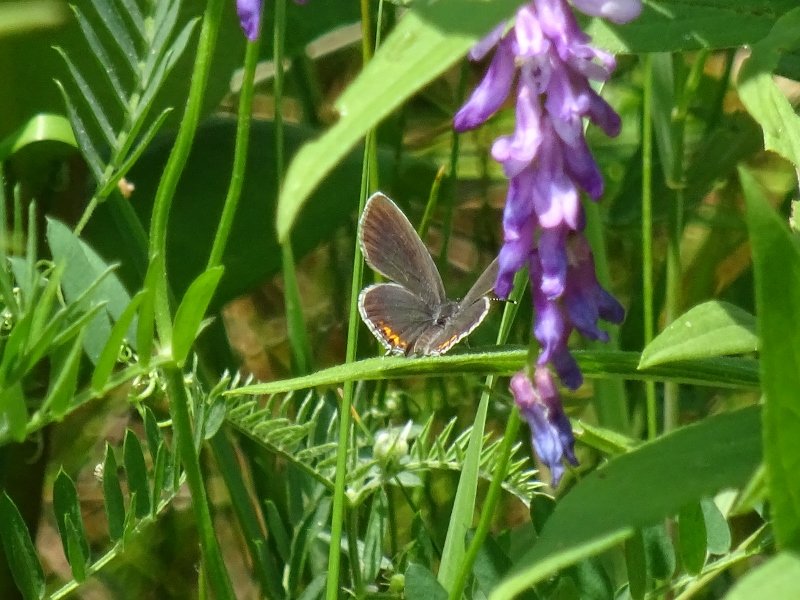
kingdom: Animalia
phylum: Arthropoda
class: Insecta
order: Lepidoptera
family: Lycaenidae
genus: Elkalyce
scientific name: Elkalyce comyntas
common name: Eastern Tailed-Blue
